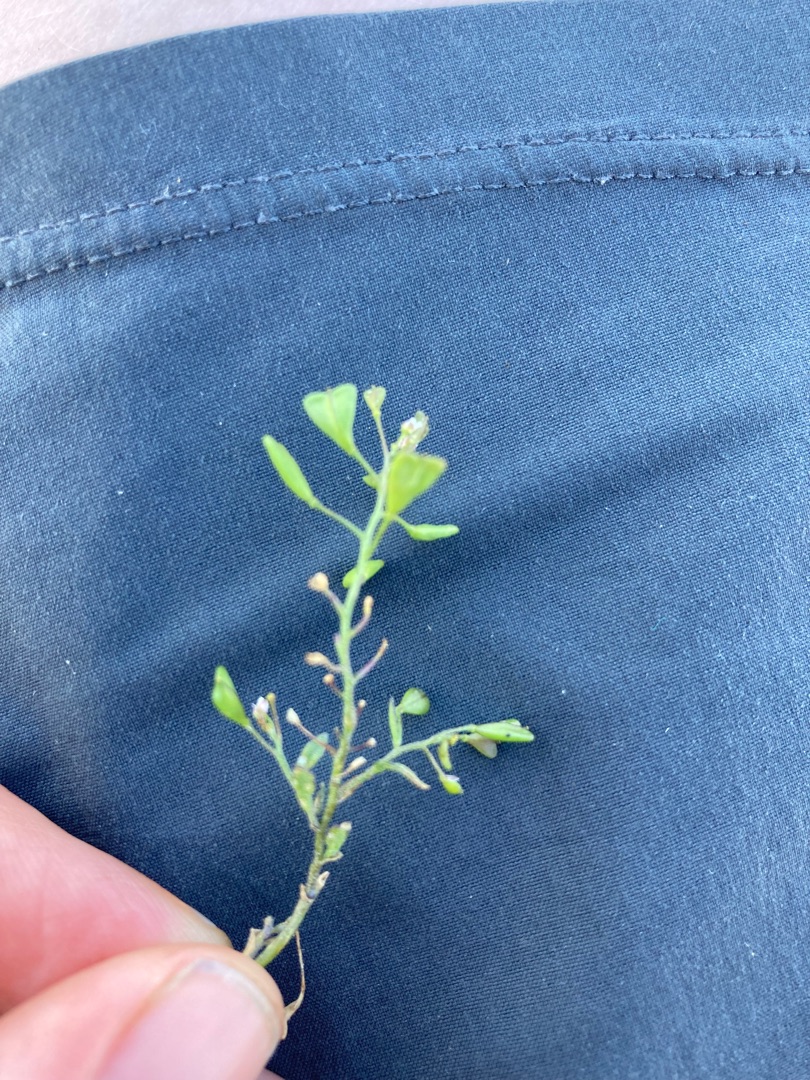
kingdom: Plantae
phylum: Tracheophyta
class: Magnoliopsida
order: Brassicales
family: Brassicaceae
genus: Capsella
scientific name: Capsella bursa-pastoris
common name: Hyrdetaske
